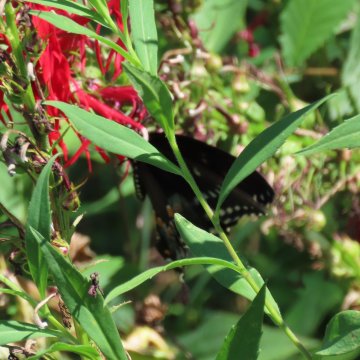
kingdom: Animalia
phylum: Arthropoda
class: Insecta
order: Lepidoptera
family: Papilionidae
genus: Pterourus
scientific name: Pterourus troilus
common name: Spicebush Swallowtail
